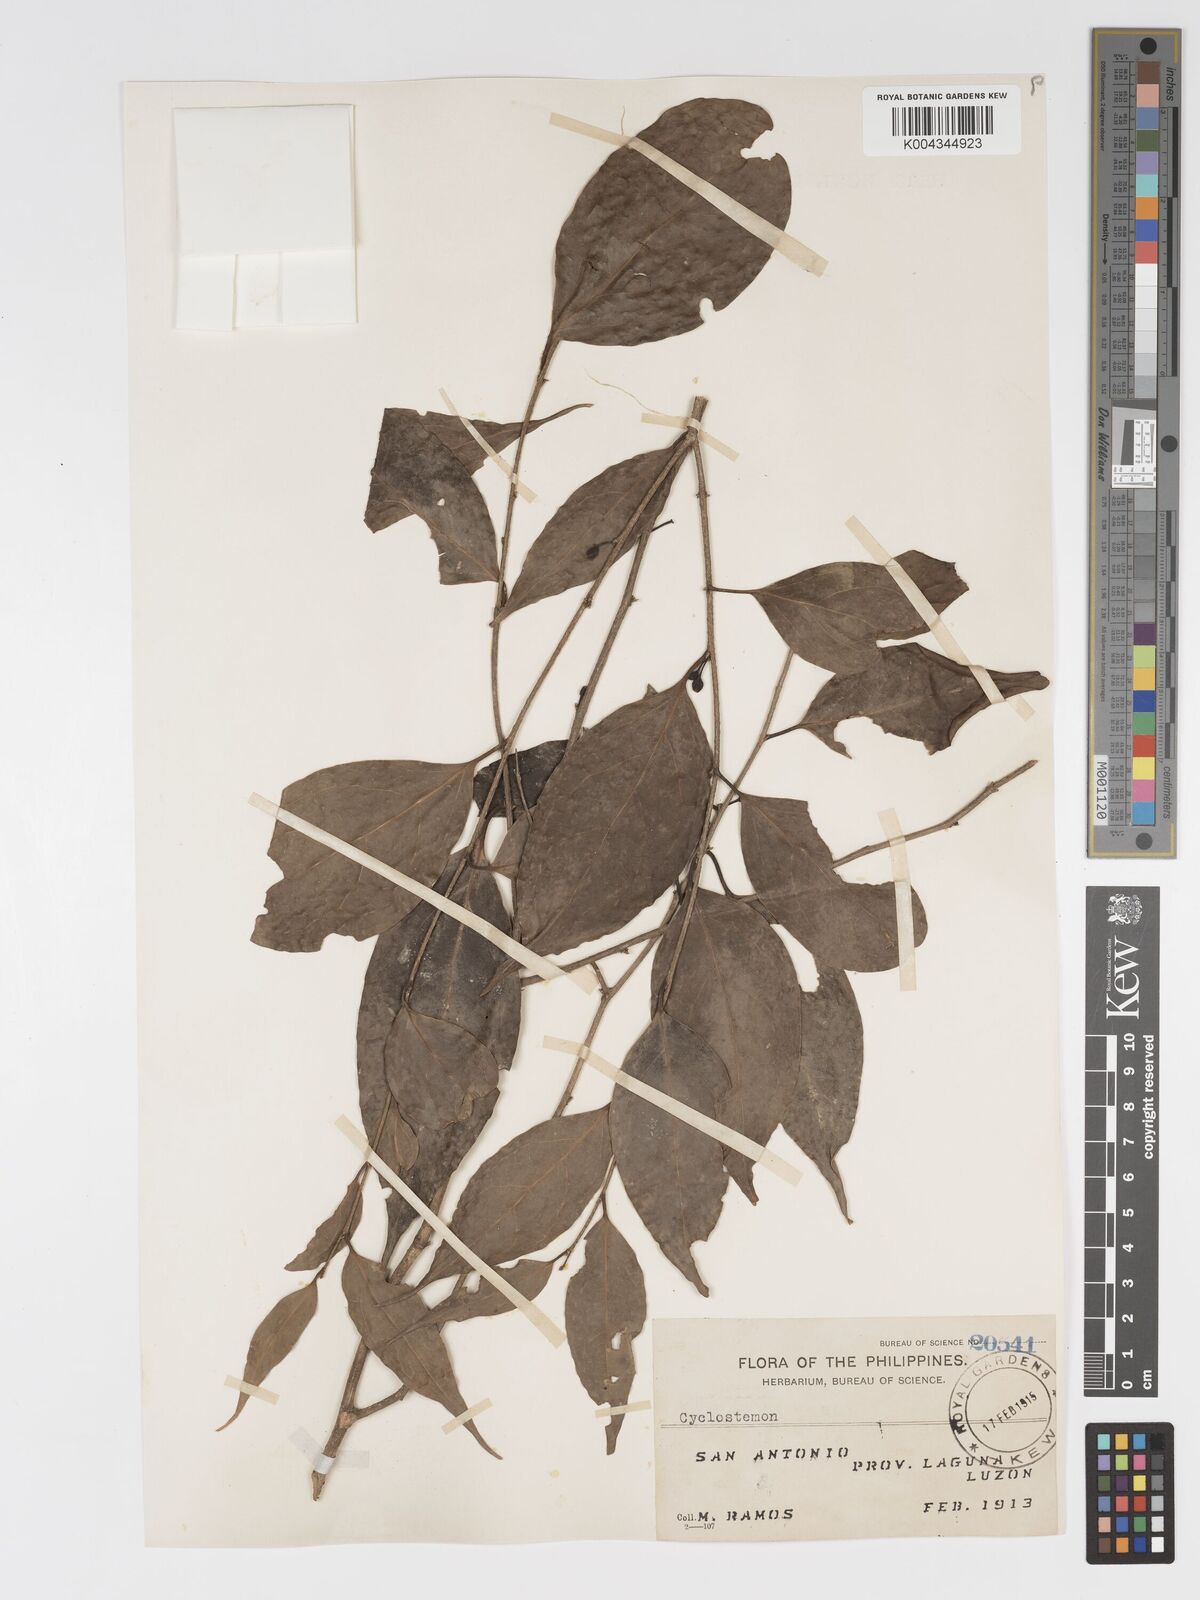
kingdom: Plantae
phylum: Tracheophyta
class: Magnoliopsida
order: Malpighiales
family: Putranjivaceae
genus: Drypetes
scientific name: Drypetes microphylla
